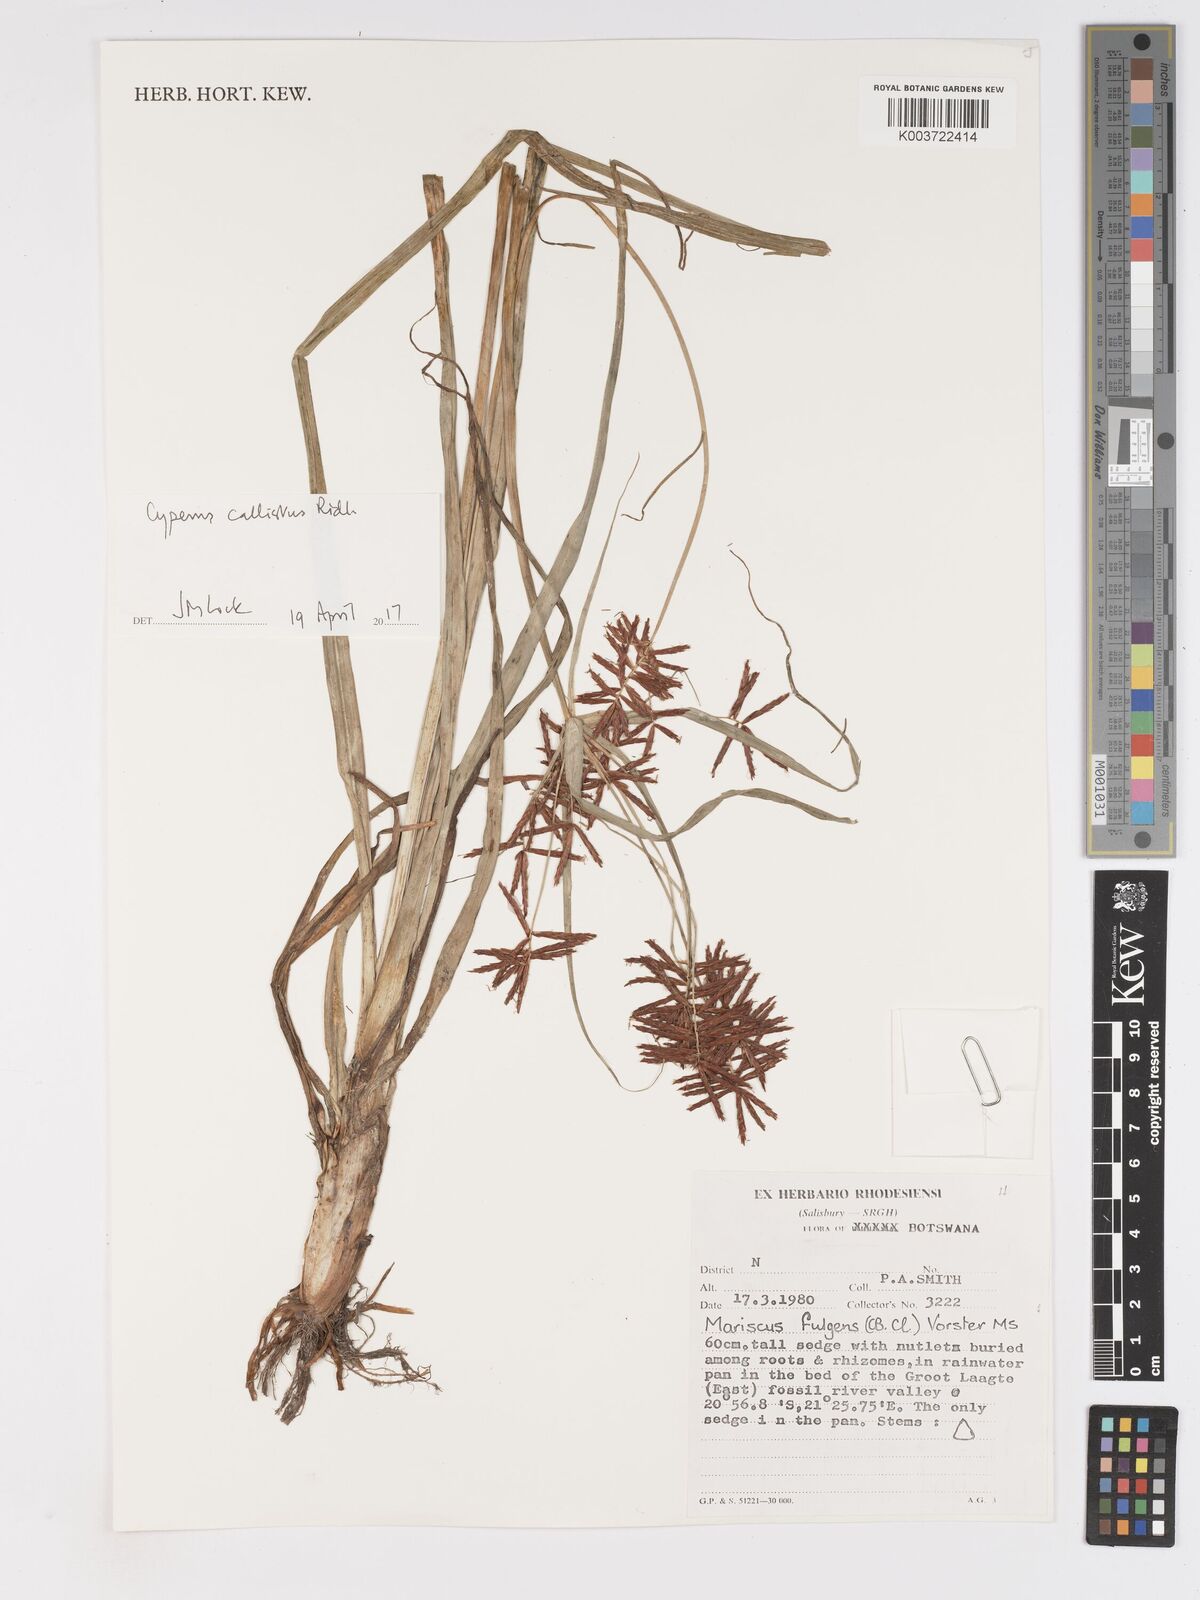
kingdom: Plantae
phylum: Tracheophyta
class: Liliopsida
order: Poales
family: Cyperaceae
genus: Cyperus
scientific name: Cyperus callistus
